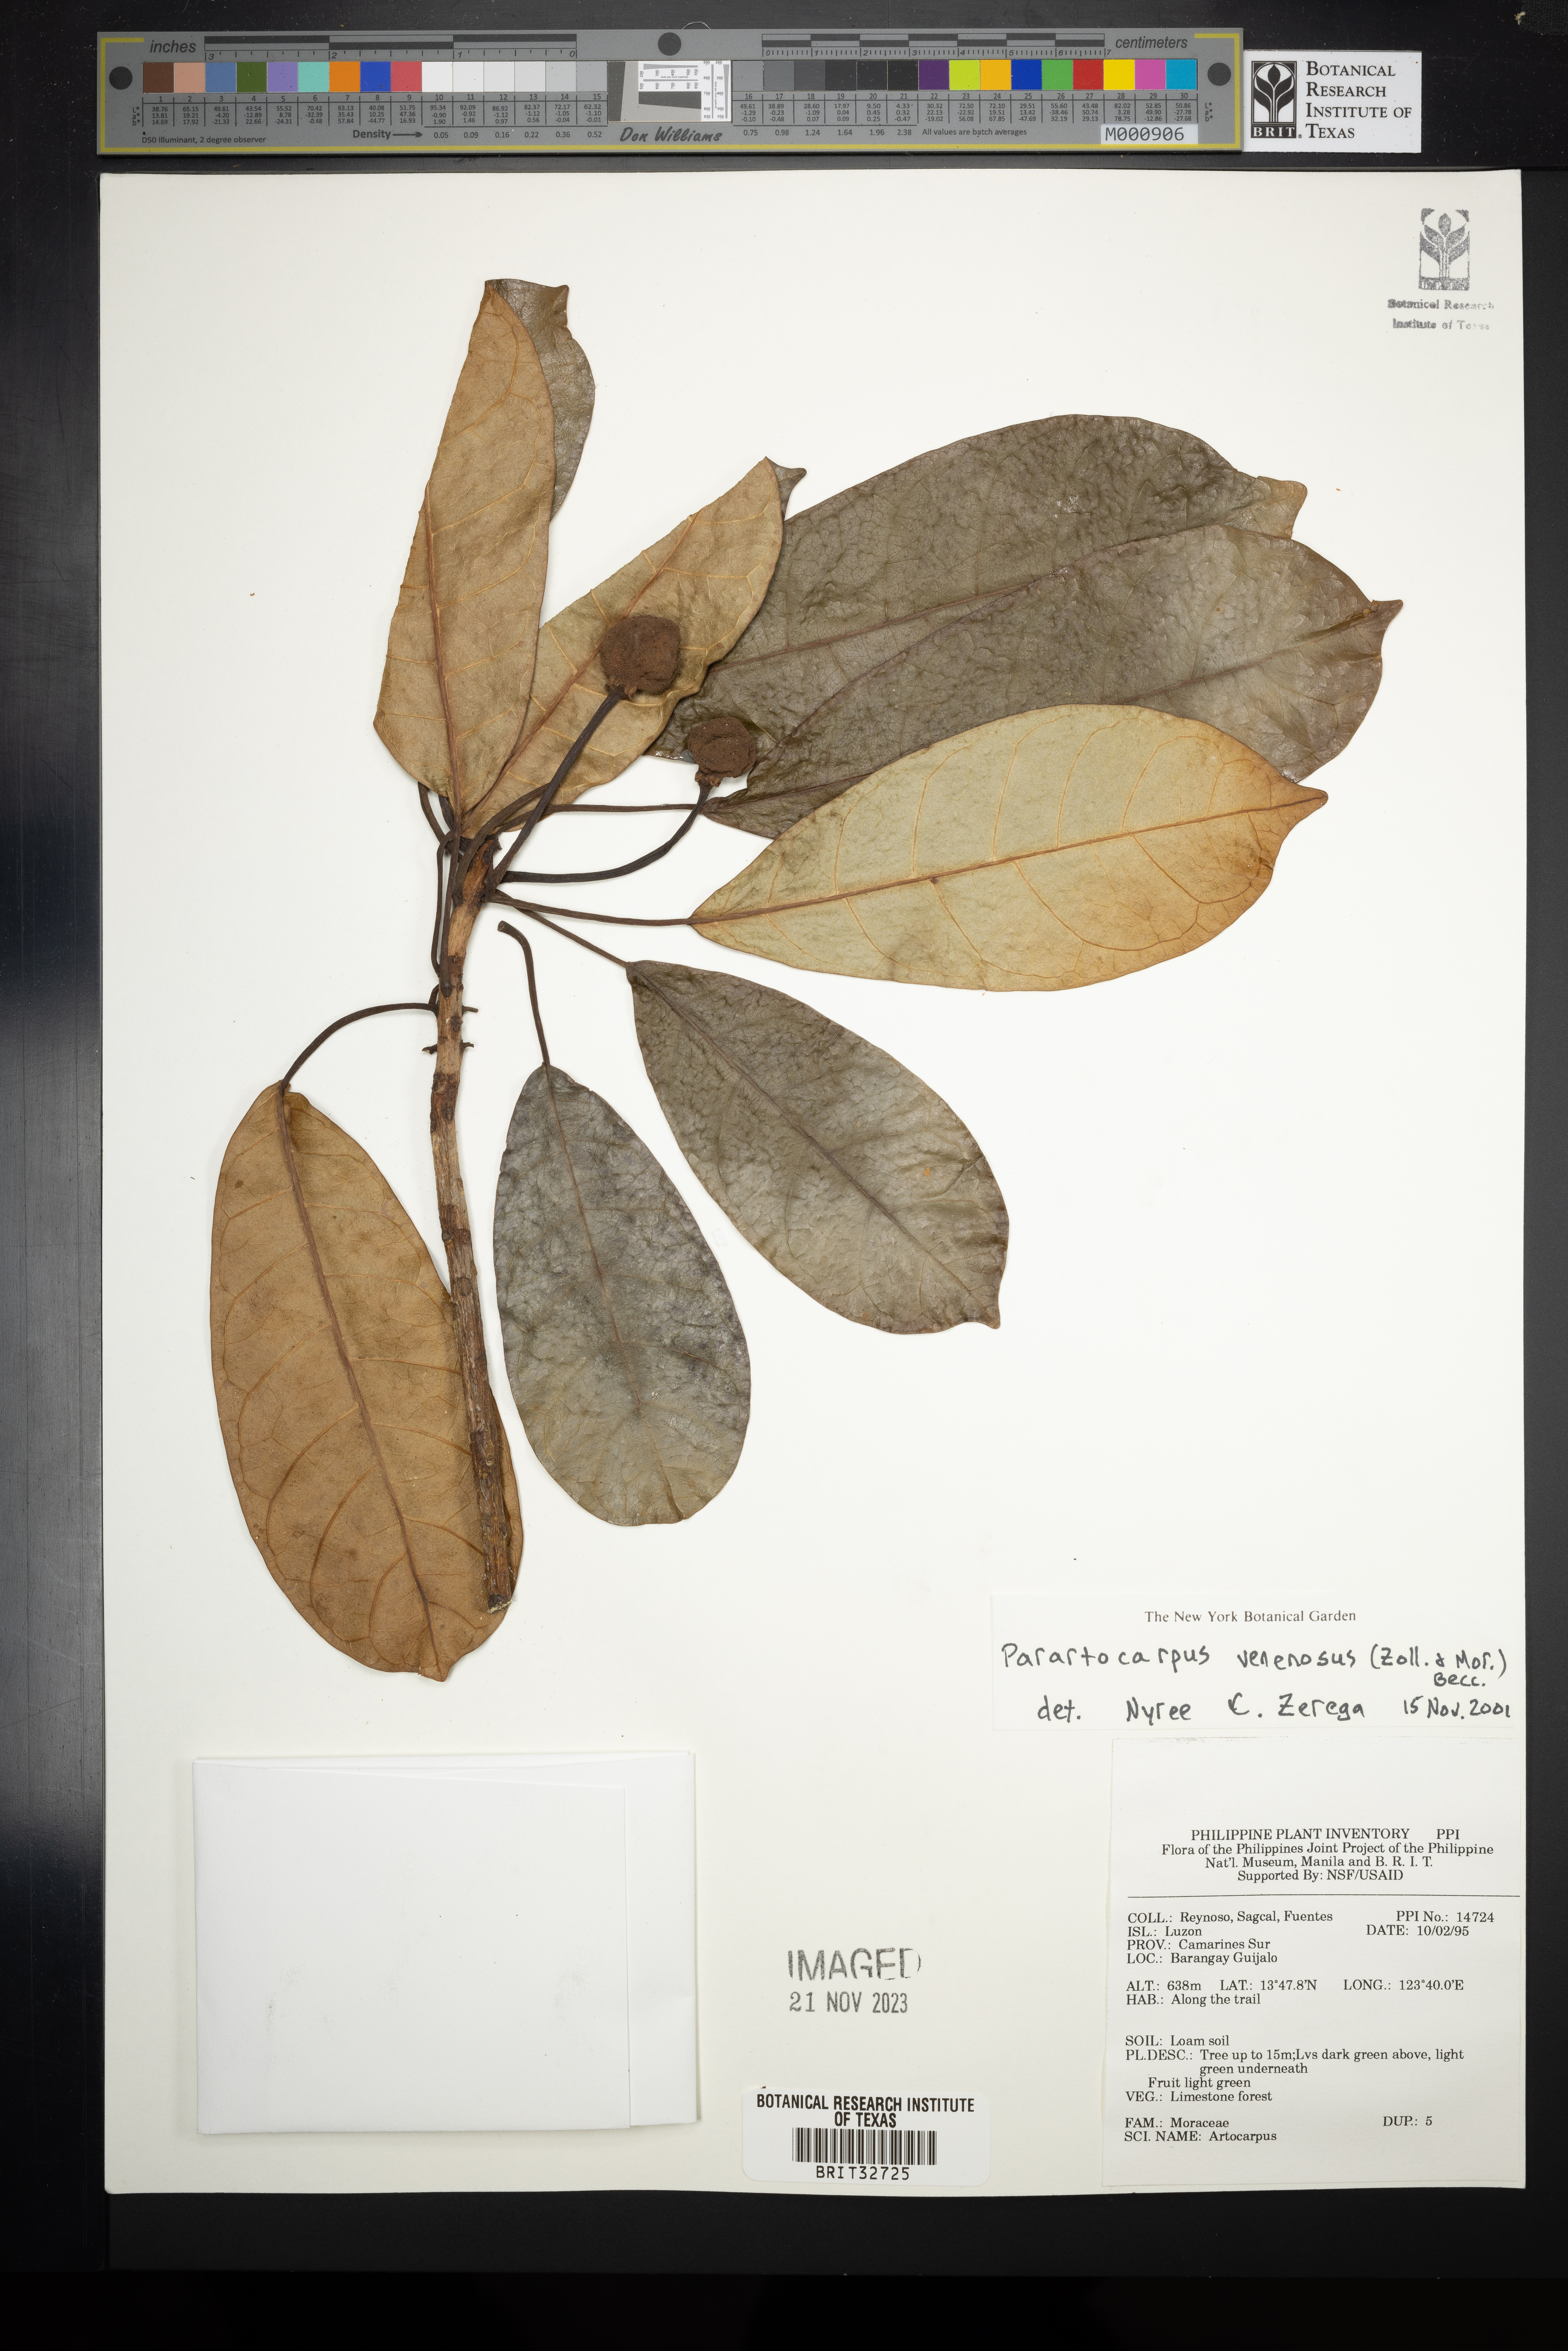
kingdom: Plantae
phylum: Tracheophyta
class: Magnoliopsida
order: Rosales
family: Moraceae
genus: Parartocarpus
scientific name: Parartocarpus venenosa
